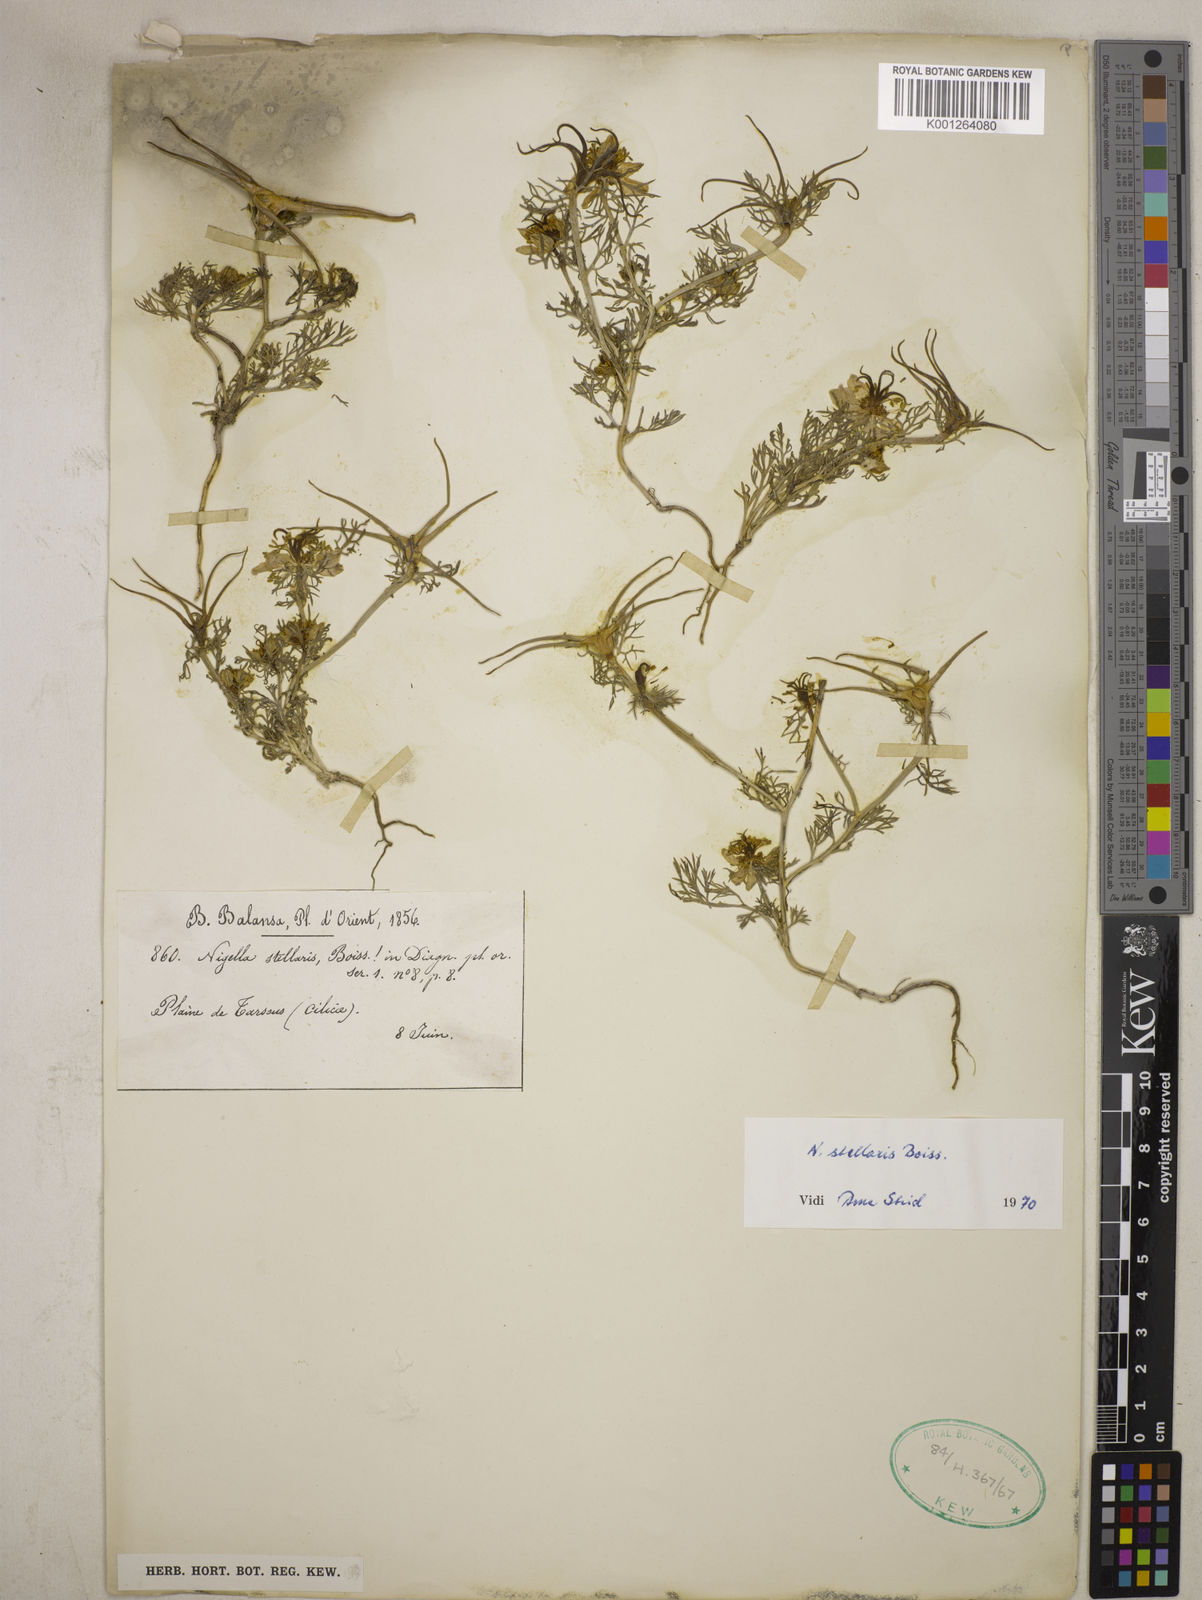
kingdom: Plantae
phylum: Tracheophyta
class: Magnoliopsida
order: Ranunculales
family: Ranunculaceae
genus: Nigella
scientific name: Nigella stellaris
